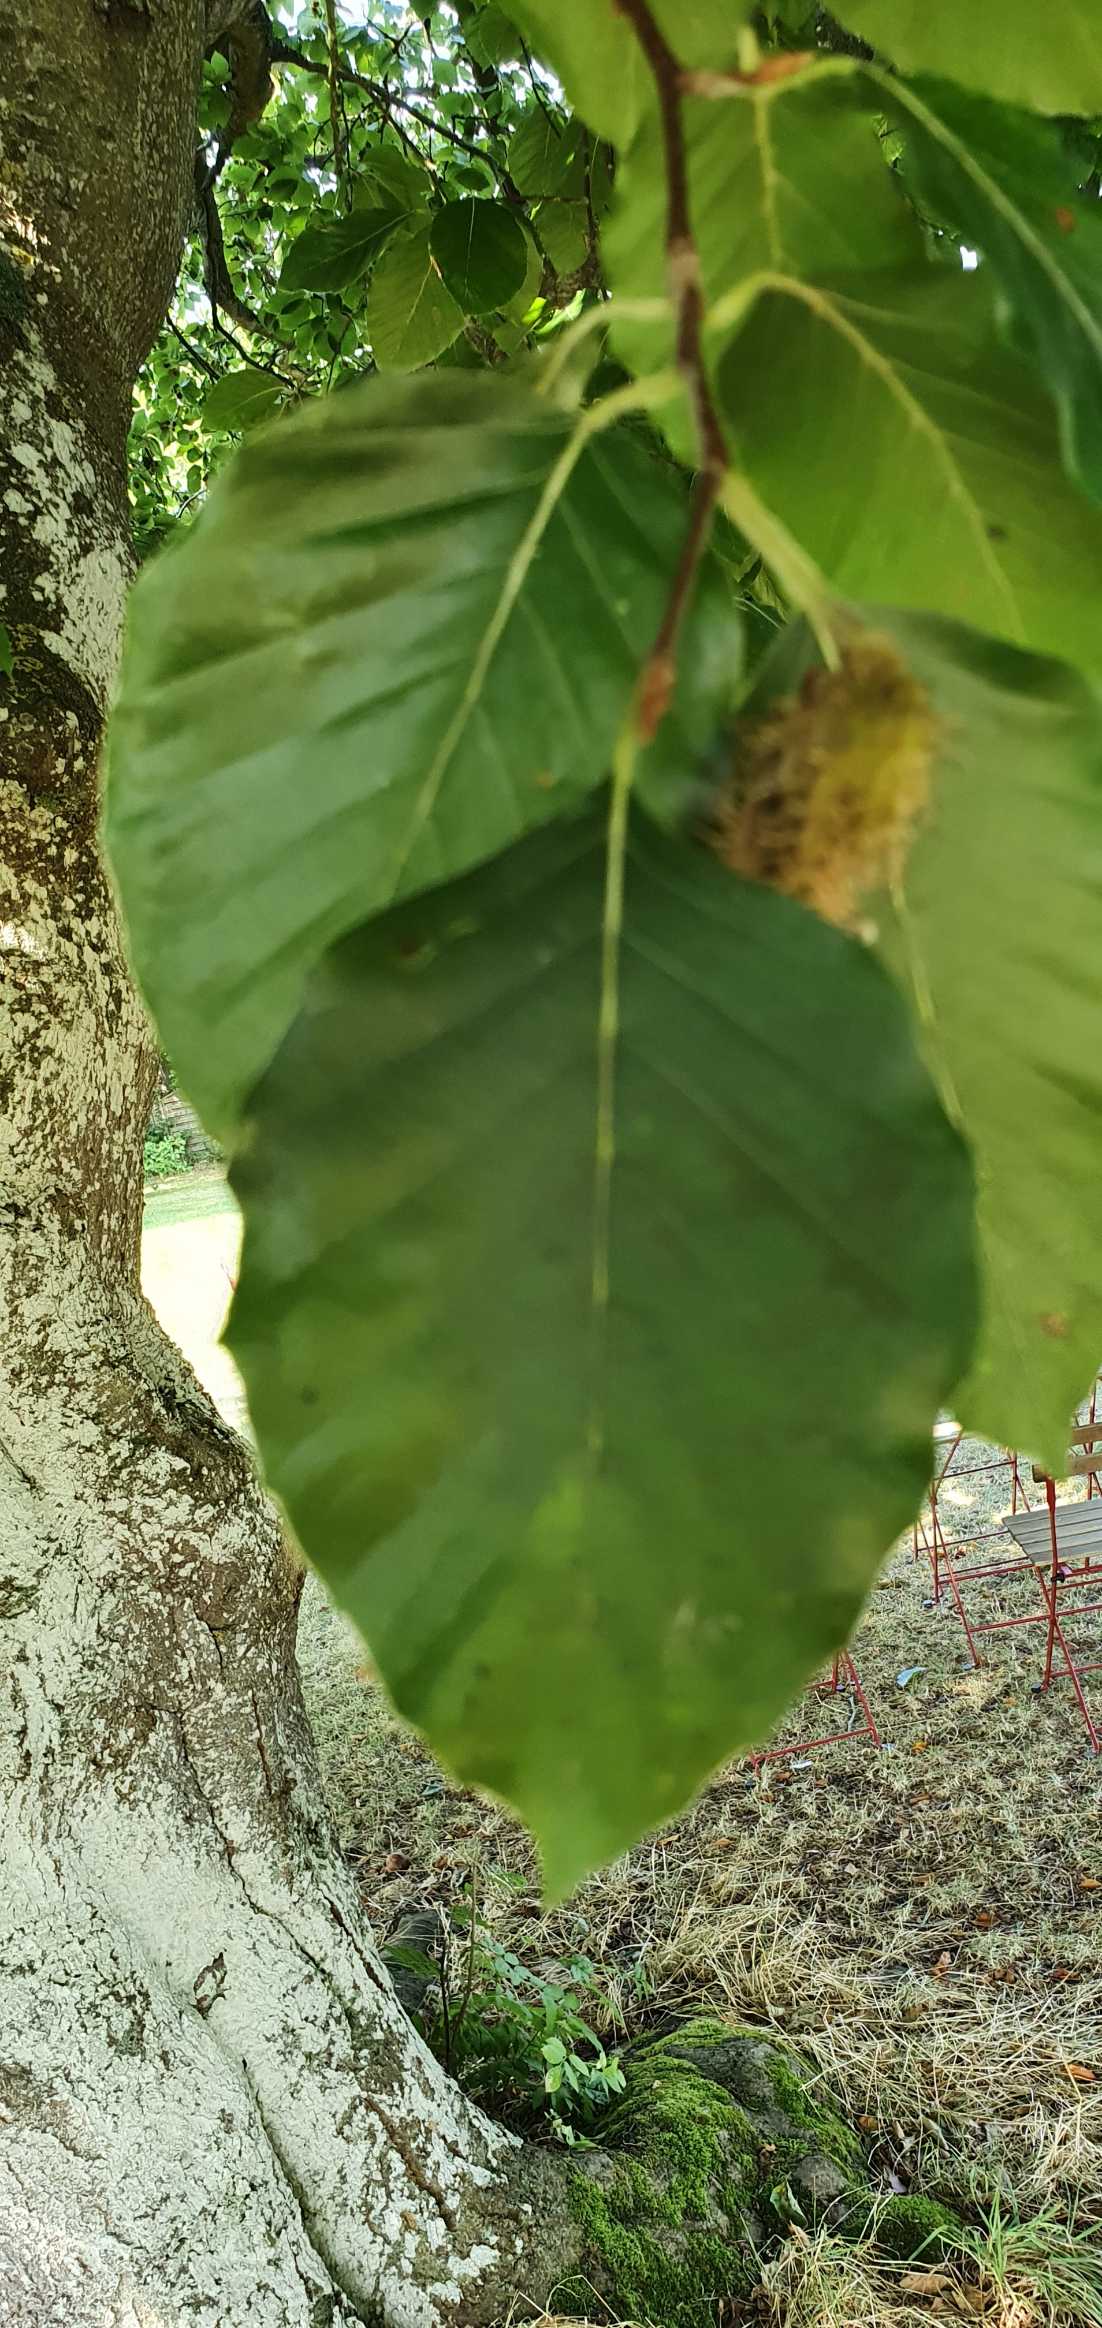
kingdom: Plantae
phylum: Tracheophyta
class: Magnoliopsida
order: Fagales
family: Fagaceae
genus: Fagus
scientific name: Fagus sylvatica
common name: Bøg
